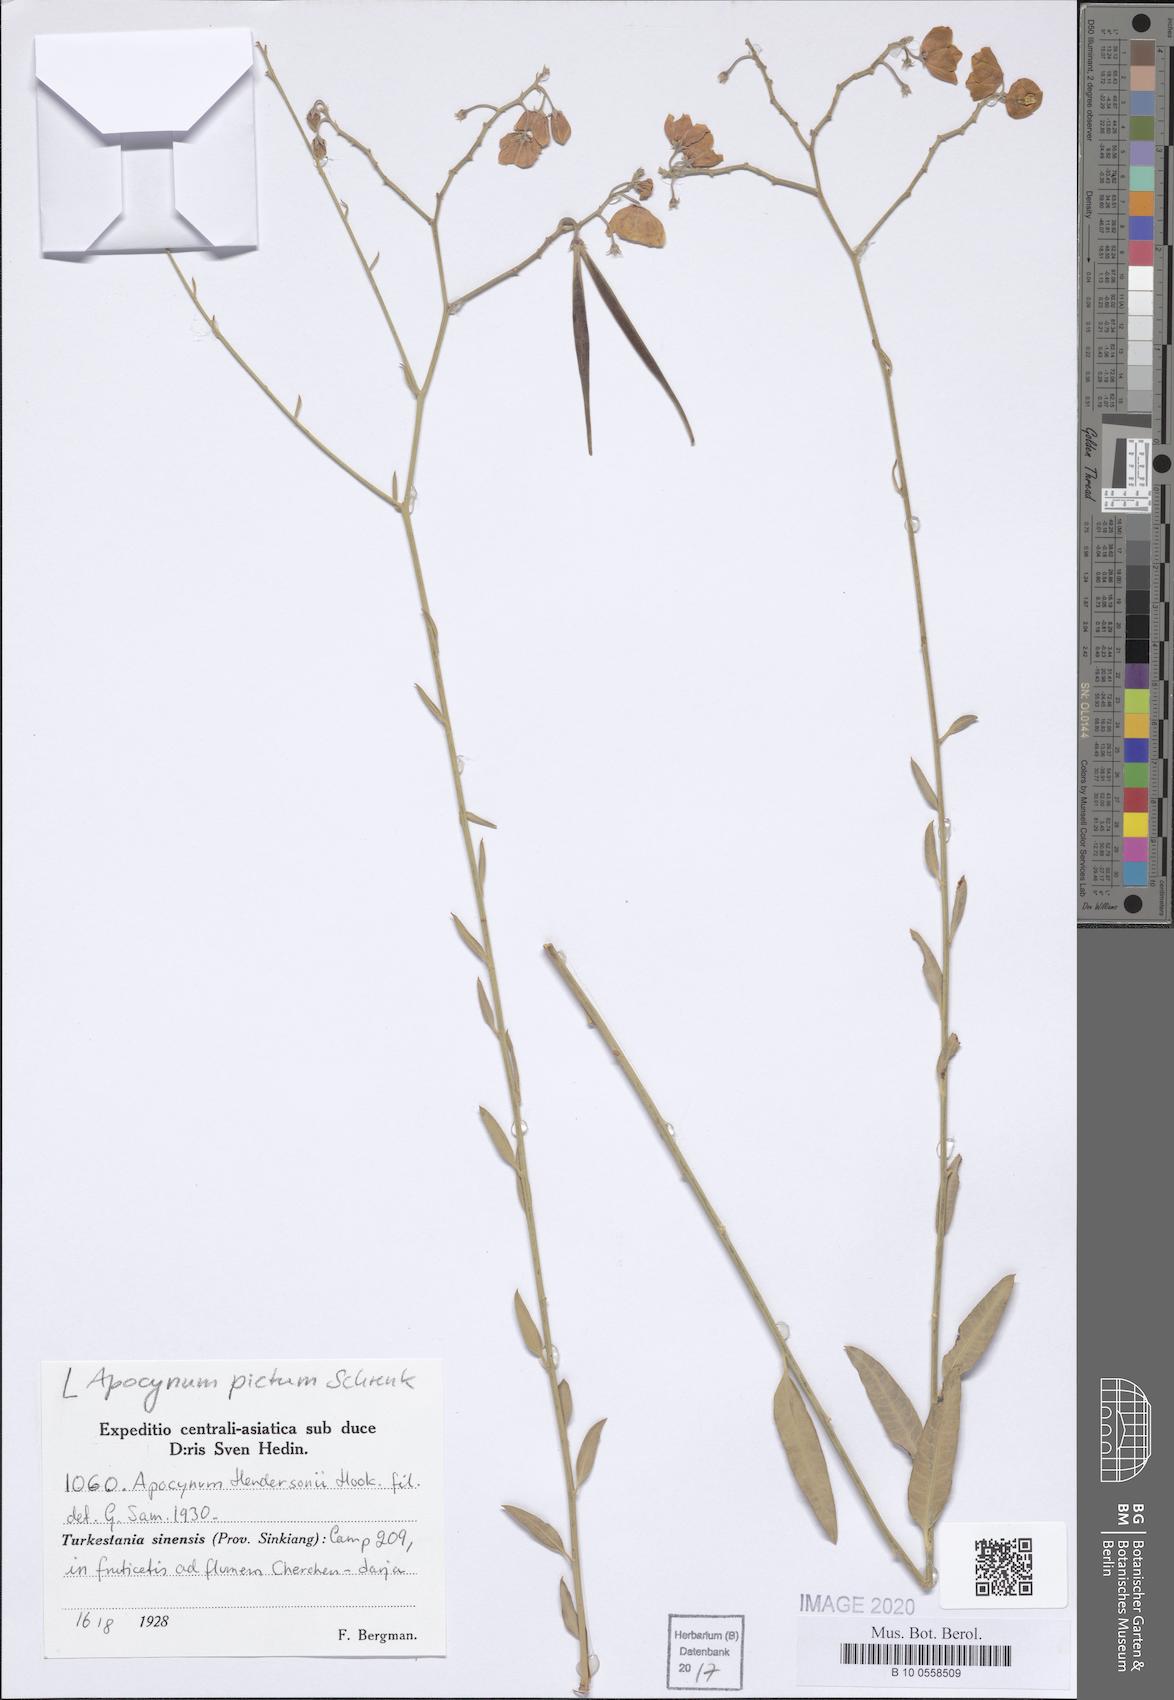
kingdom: Plantae
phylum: Tracheophyta
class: Magnoliopsida
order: Gentianales
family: Apocynaceae
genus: Poacynum
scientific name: Poacynum pictum
